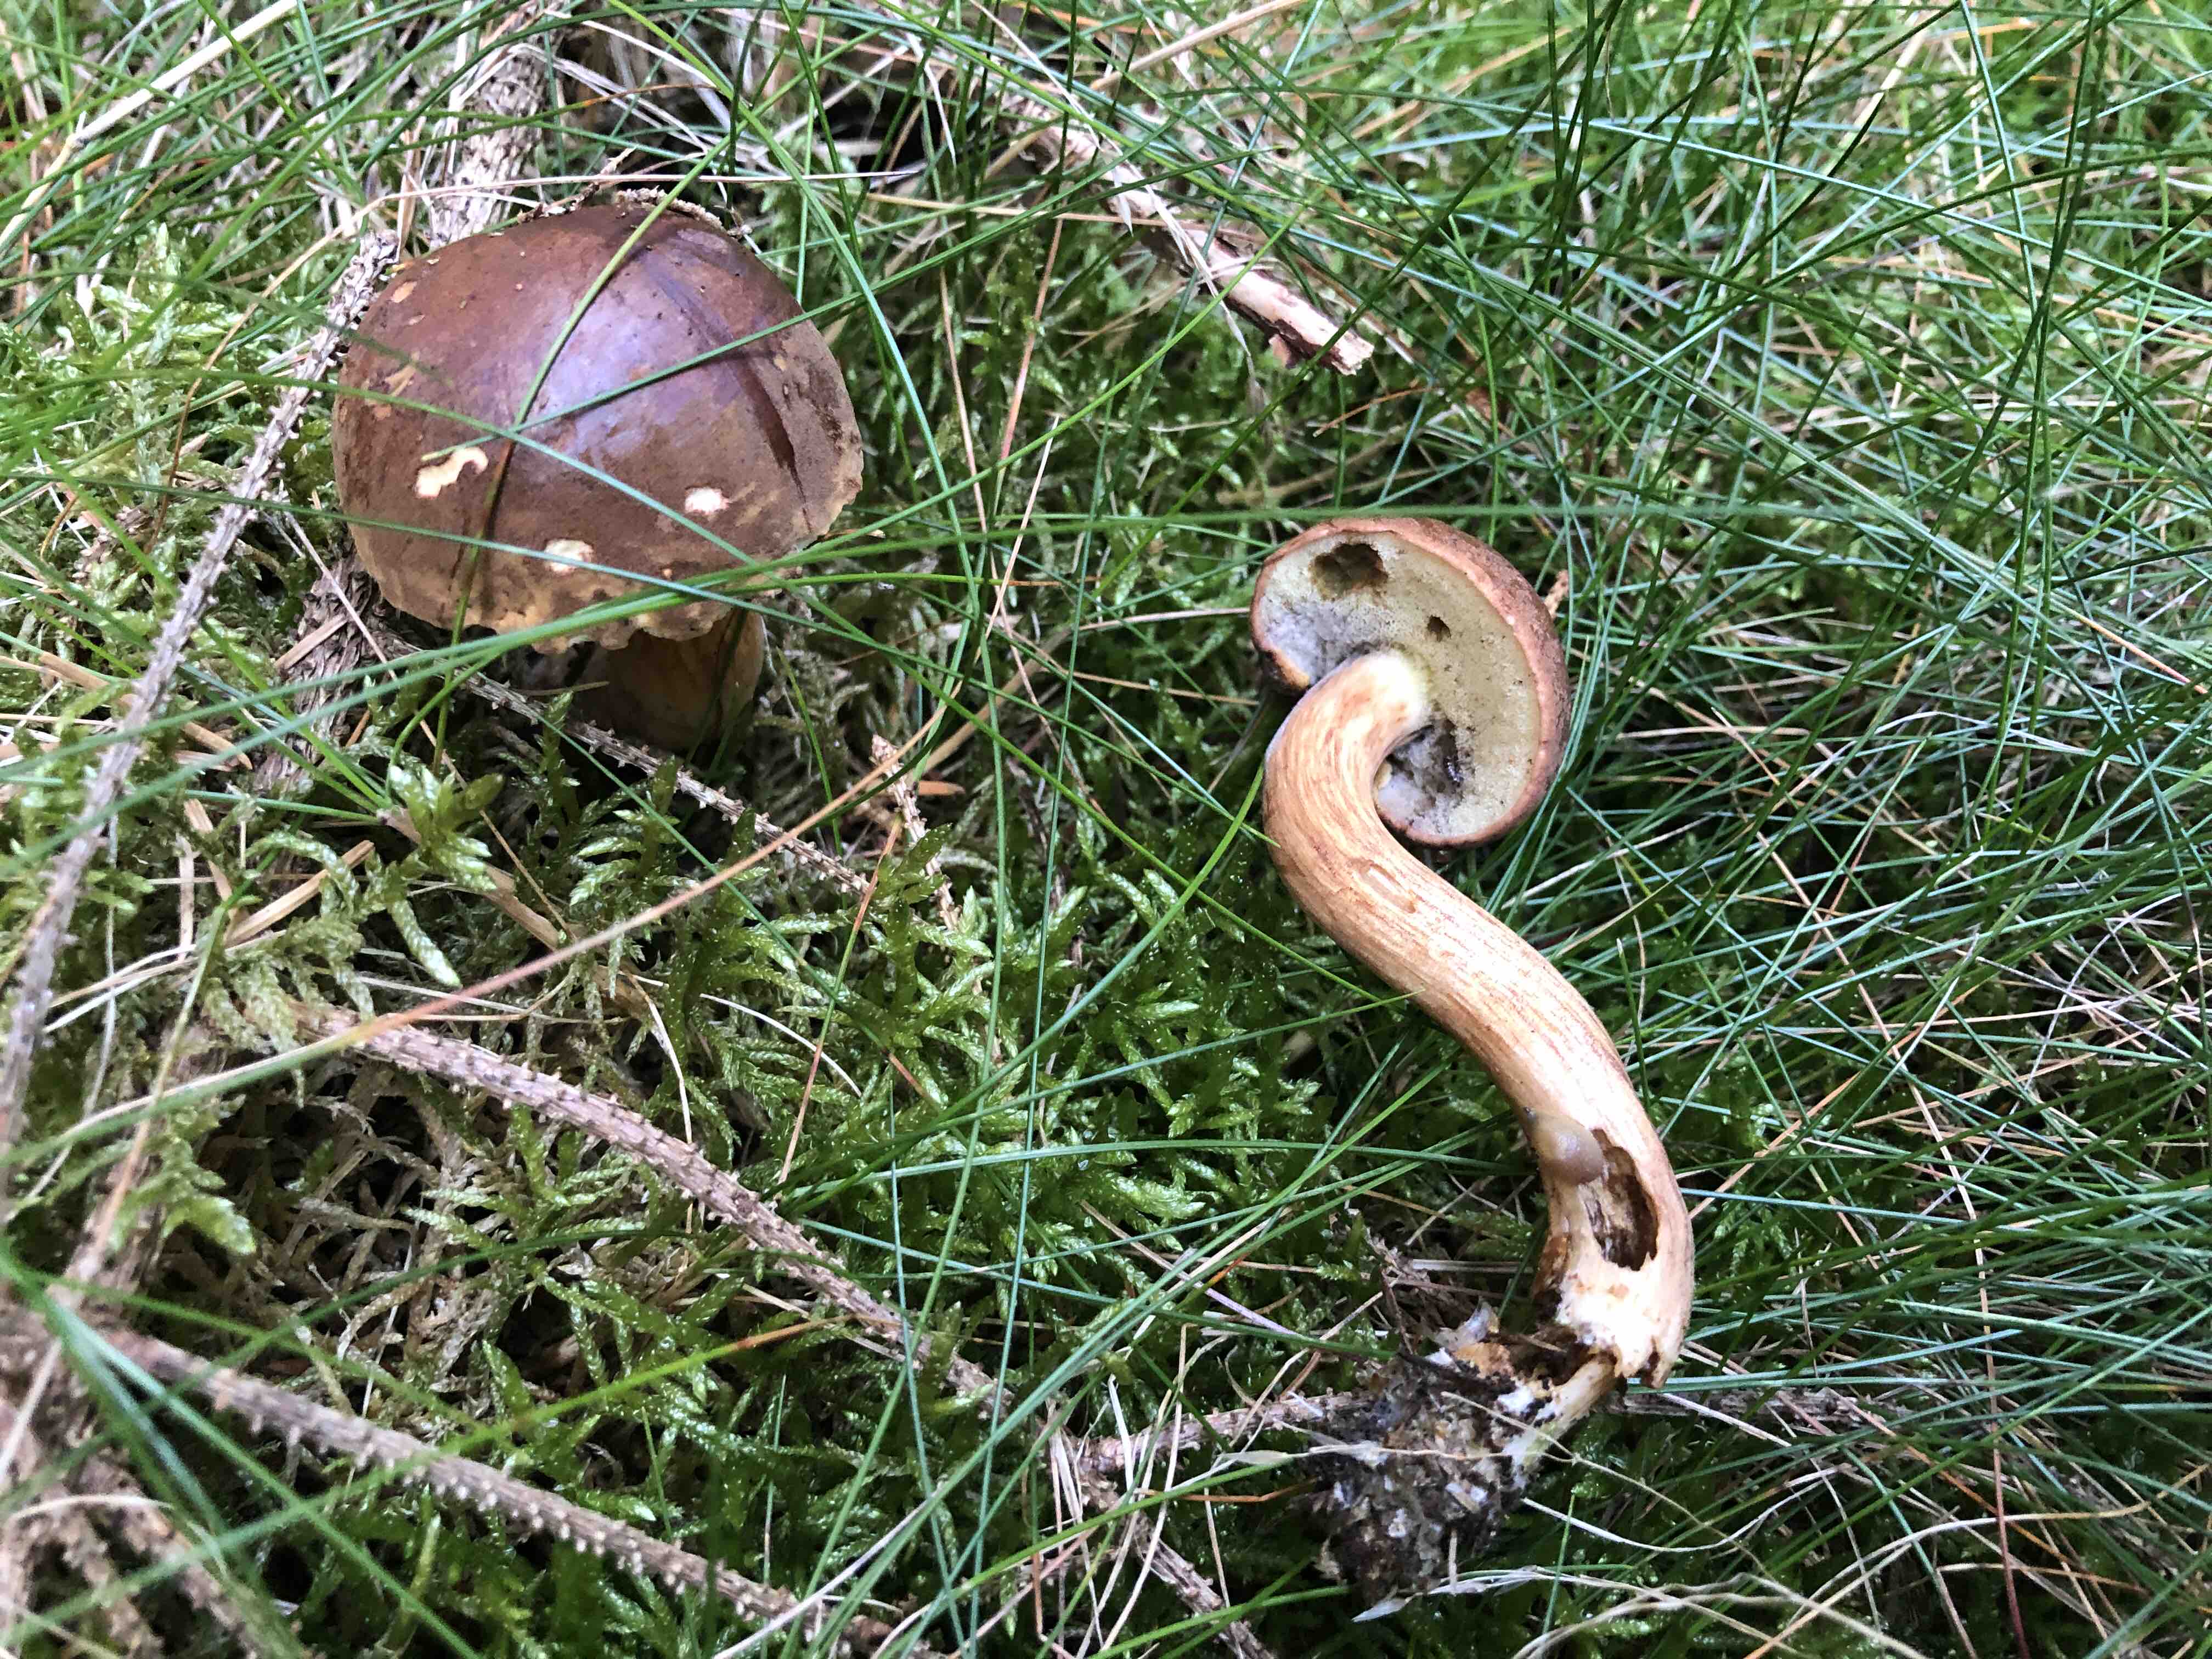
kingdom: Fungi
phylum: Basidiomycota
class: Agaricomycetes
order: Boletales
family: Boletaceae
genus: Imleria
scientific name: Imleria badia
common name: brunstokket rørhat
